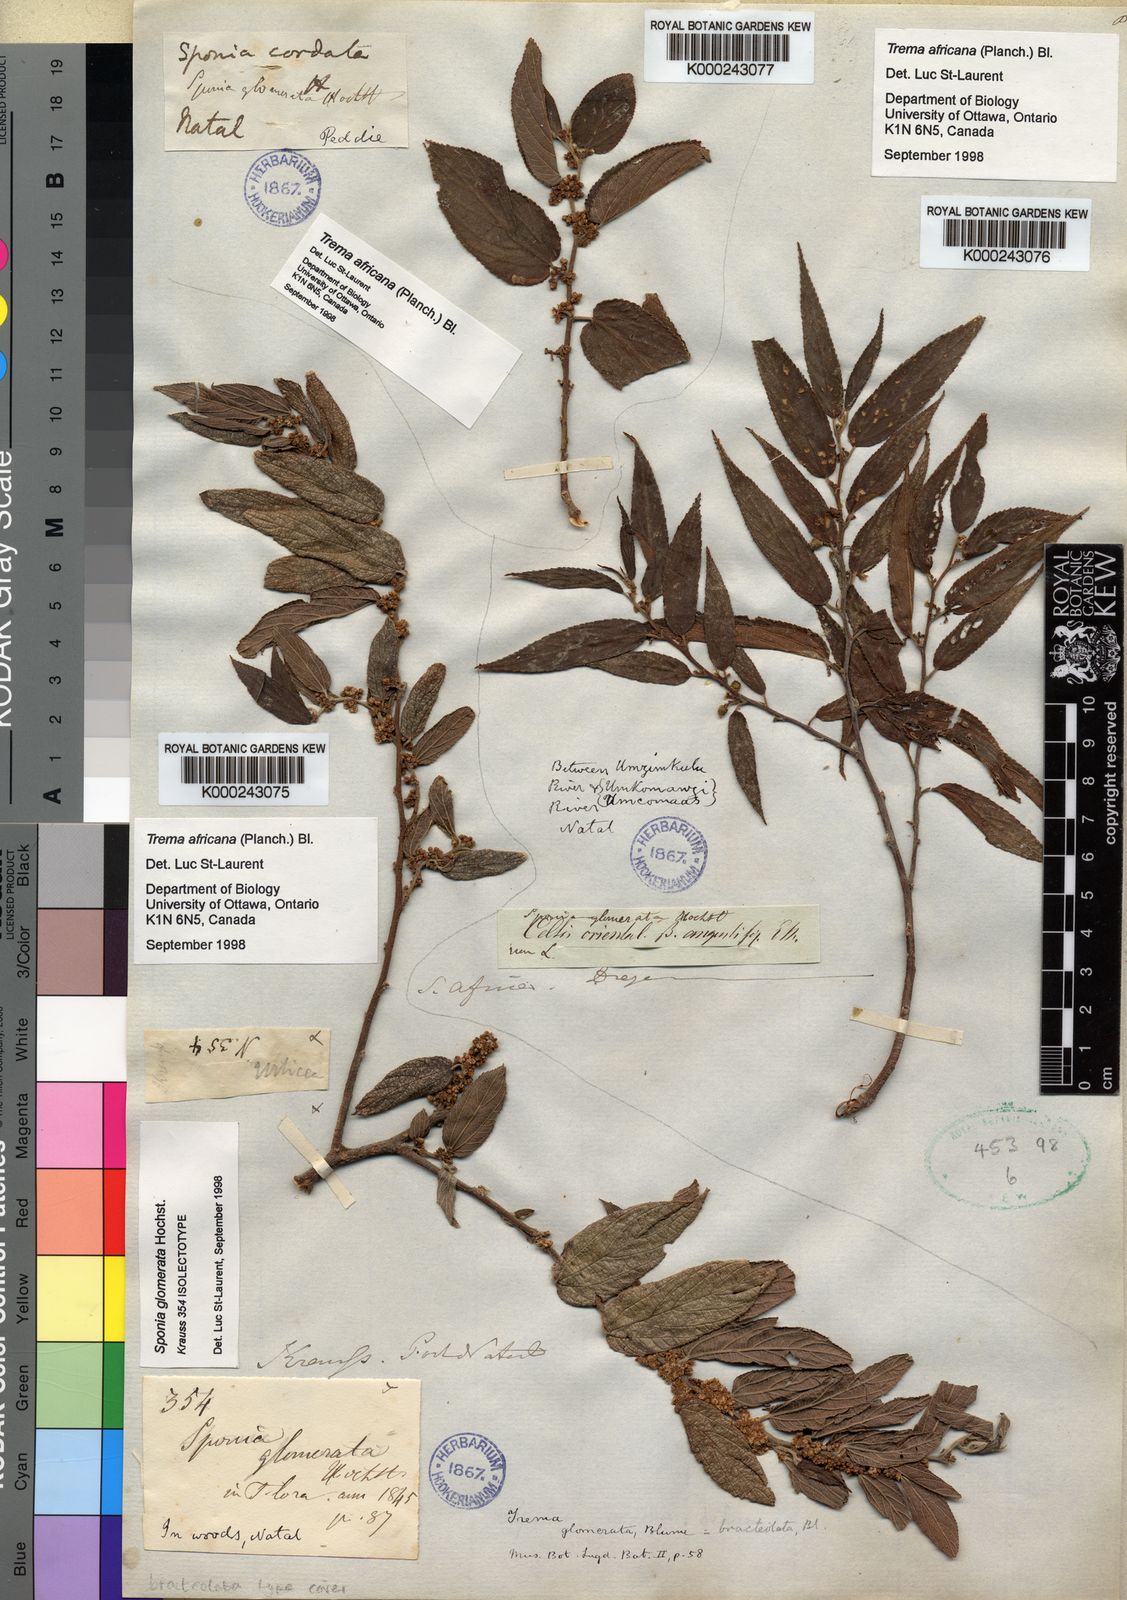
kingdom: Plantae
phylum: Tracheophyta
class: Magnoliopsida
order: Rosales
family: Cannabaceae
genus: Trema
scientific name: Trema
